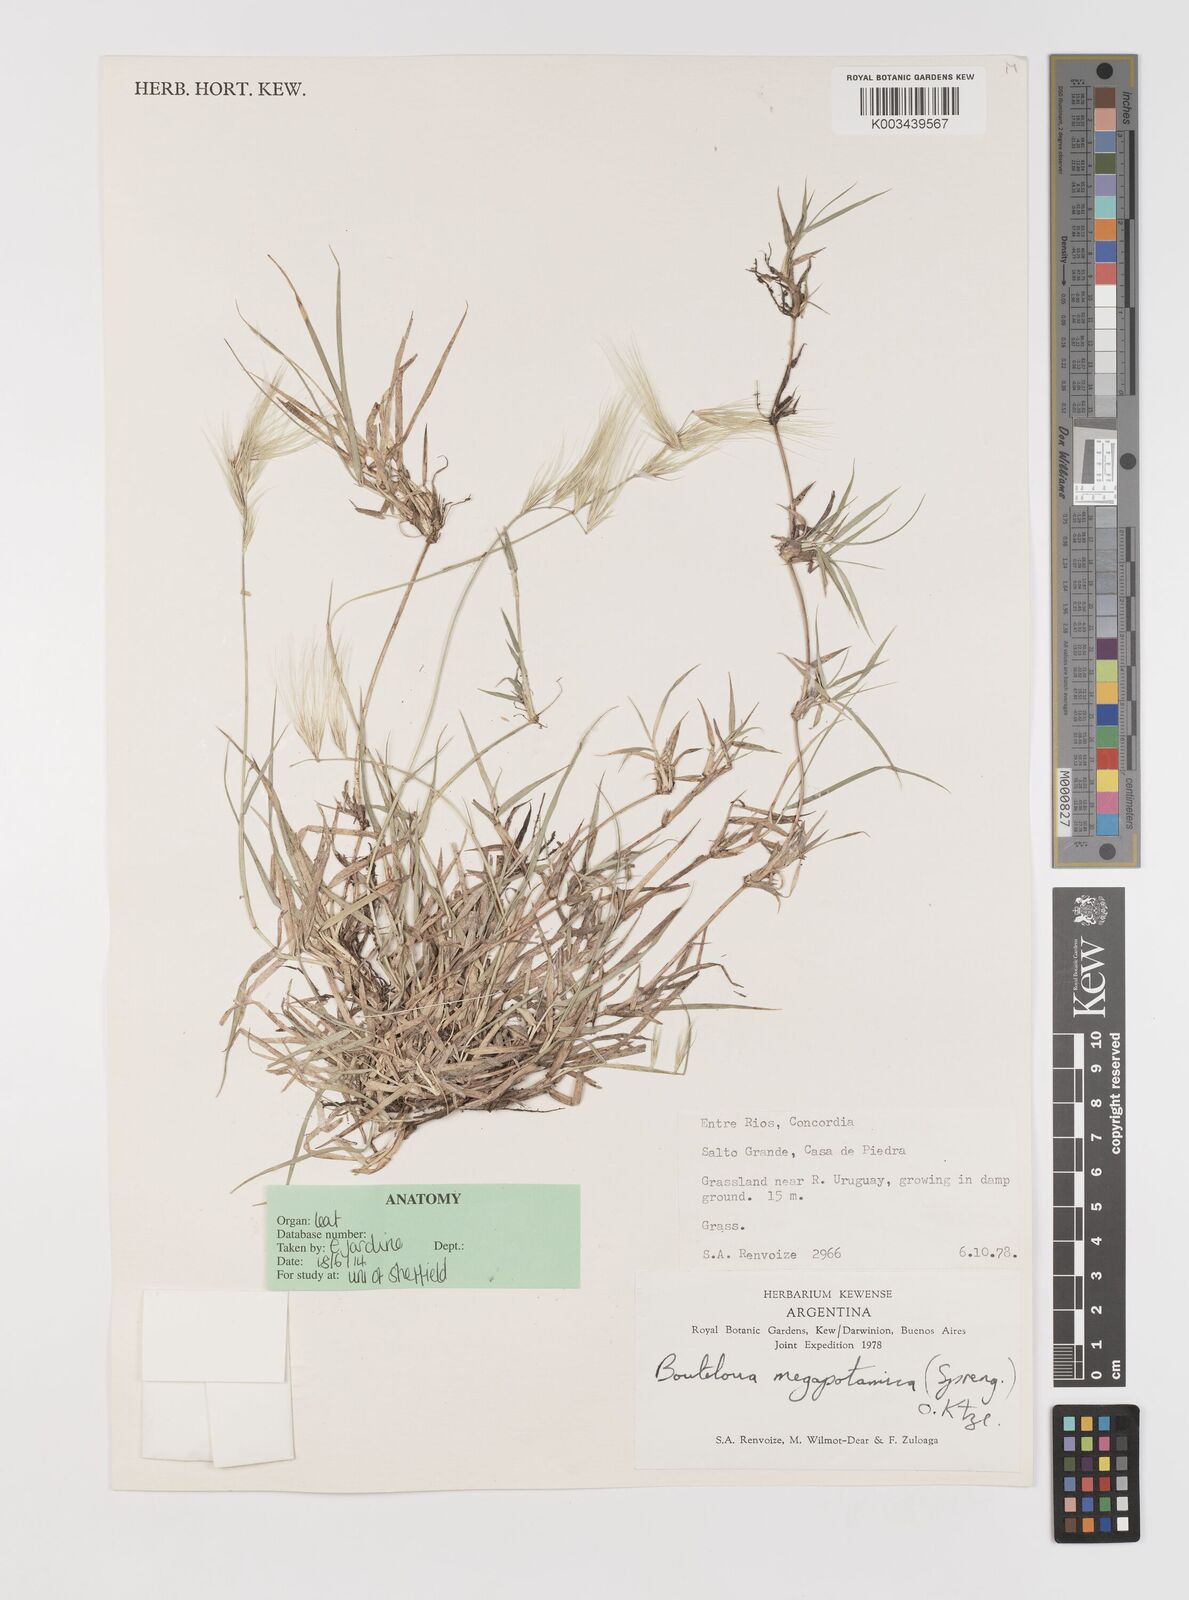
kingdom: Plantae
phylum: Tracheophyta
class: Liliopsida
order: Poales
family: Poaceae
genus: Bouteloua
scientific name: Bouteloua megapotamica
